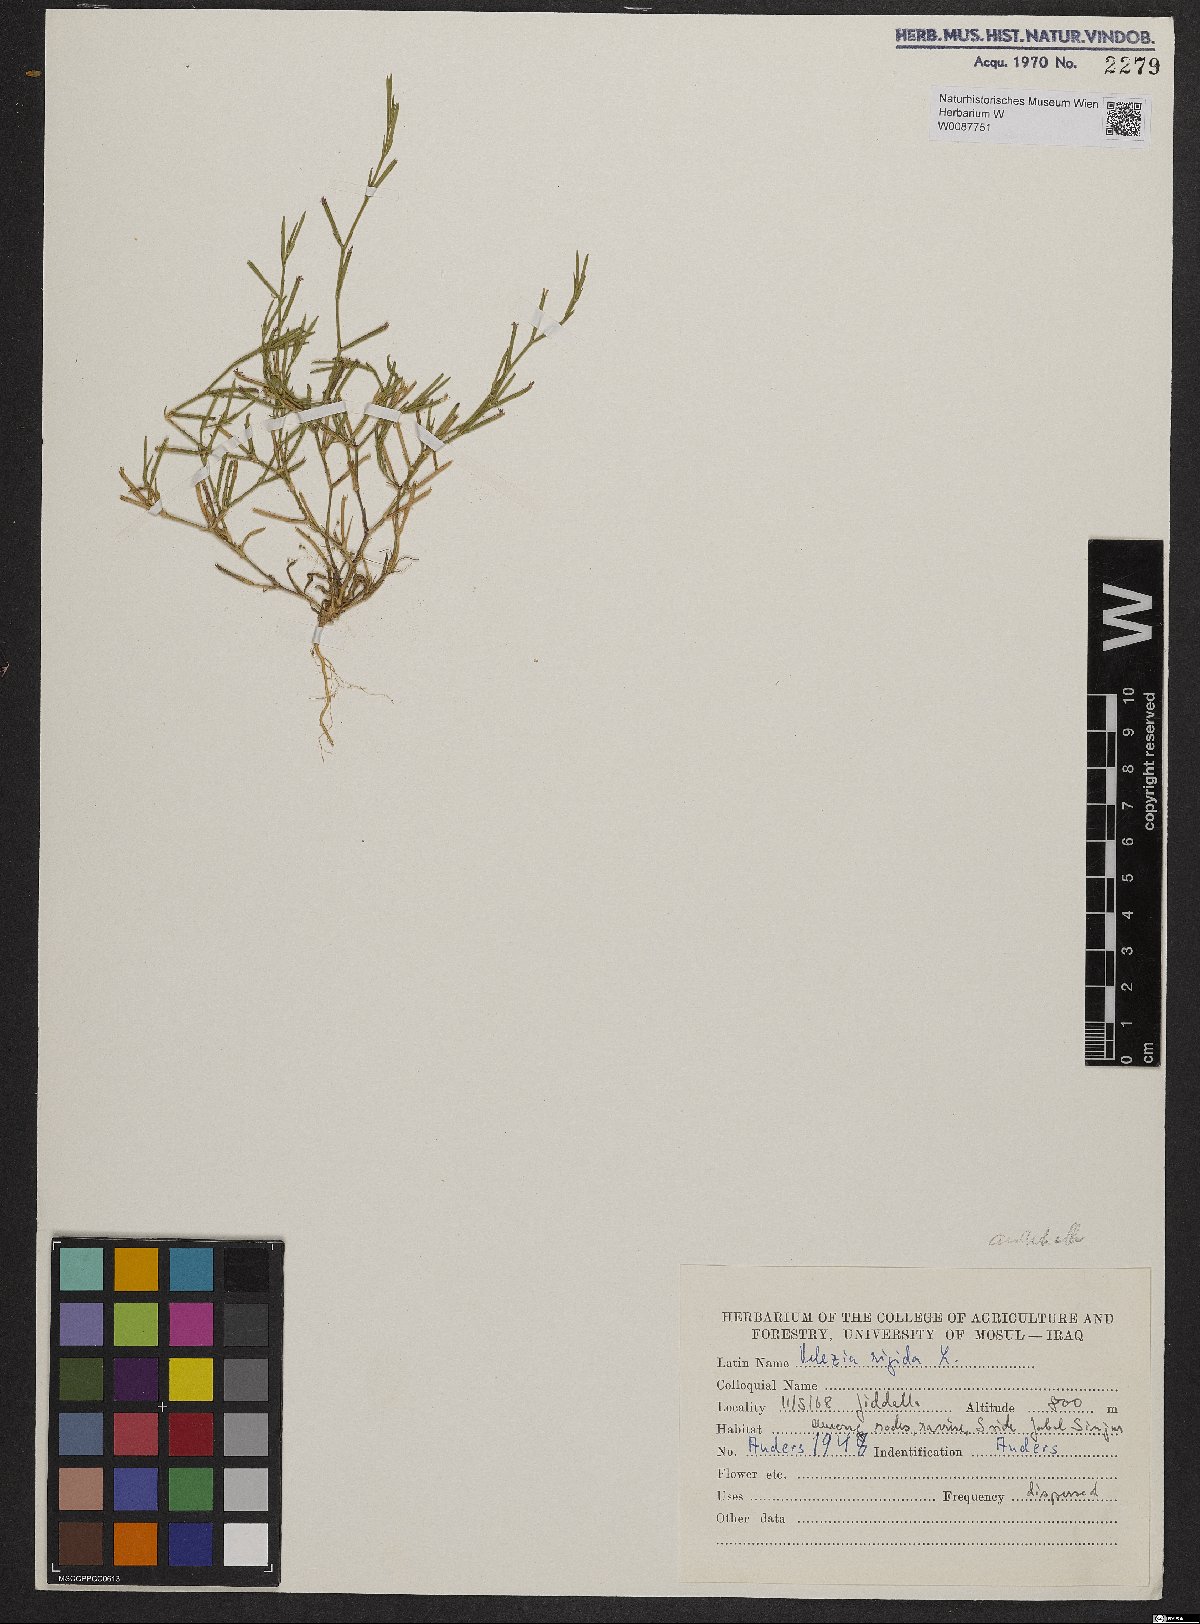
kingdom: Plantae
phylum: Tracheophyta
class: Magnoliopsida
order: Caryophyllales
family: Caryophyllaceae
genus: Dianthus
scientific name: Dianthus nudiflorus
